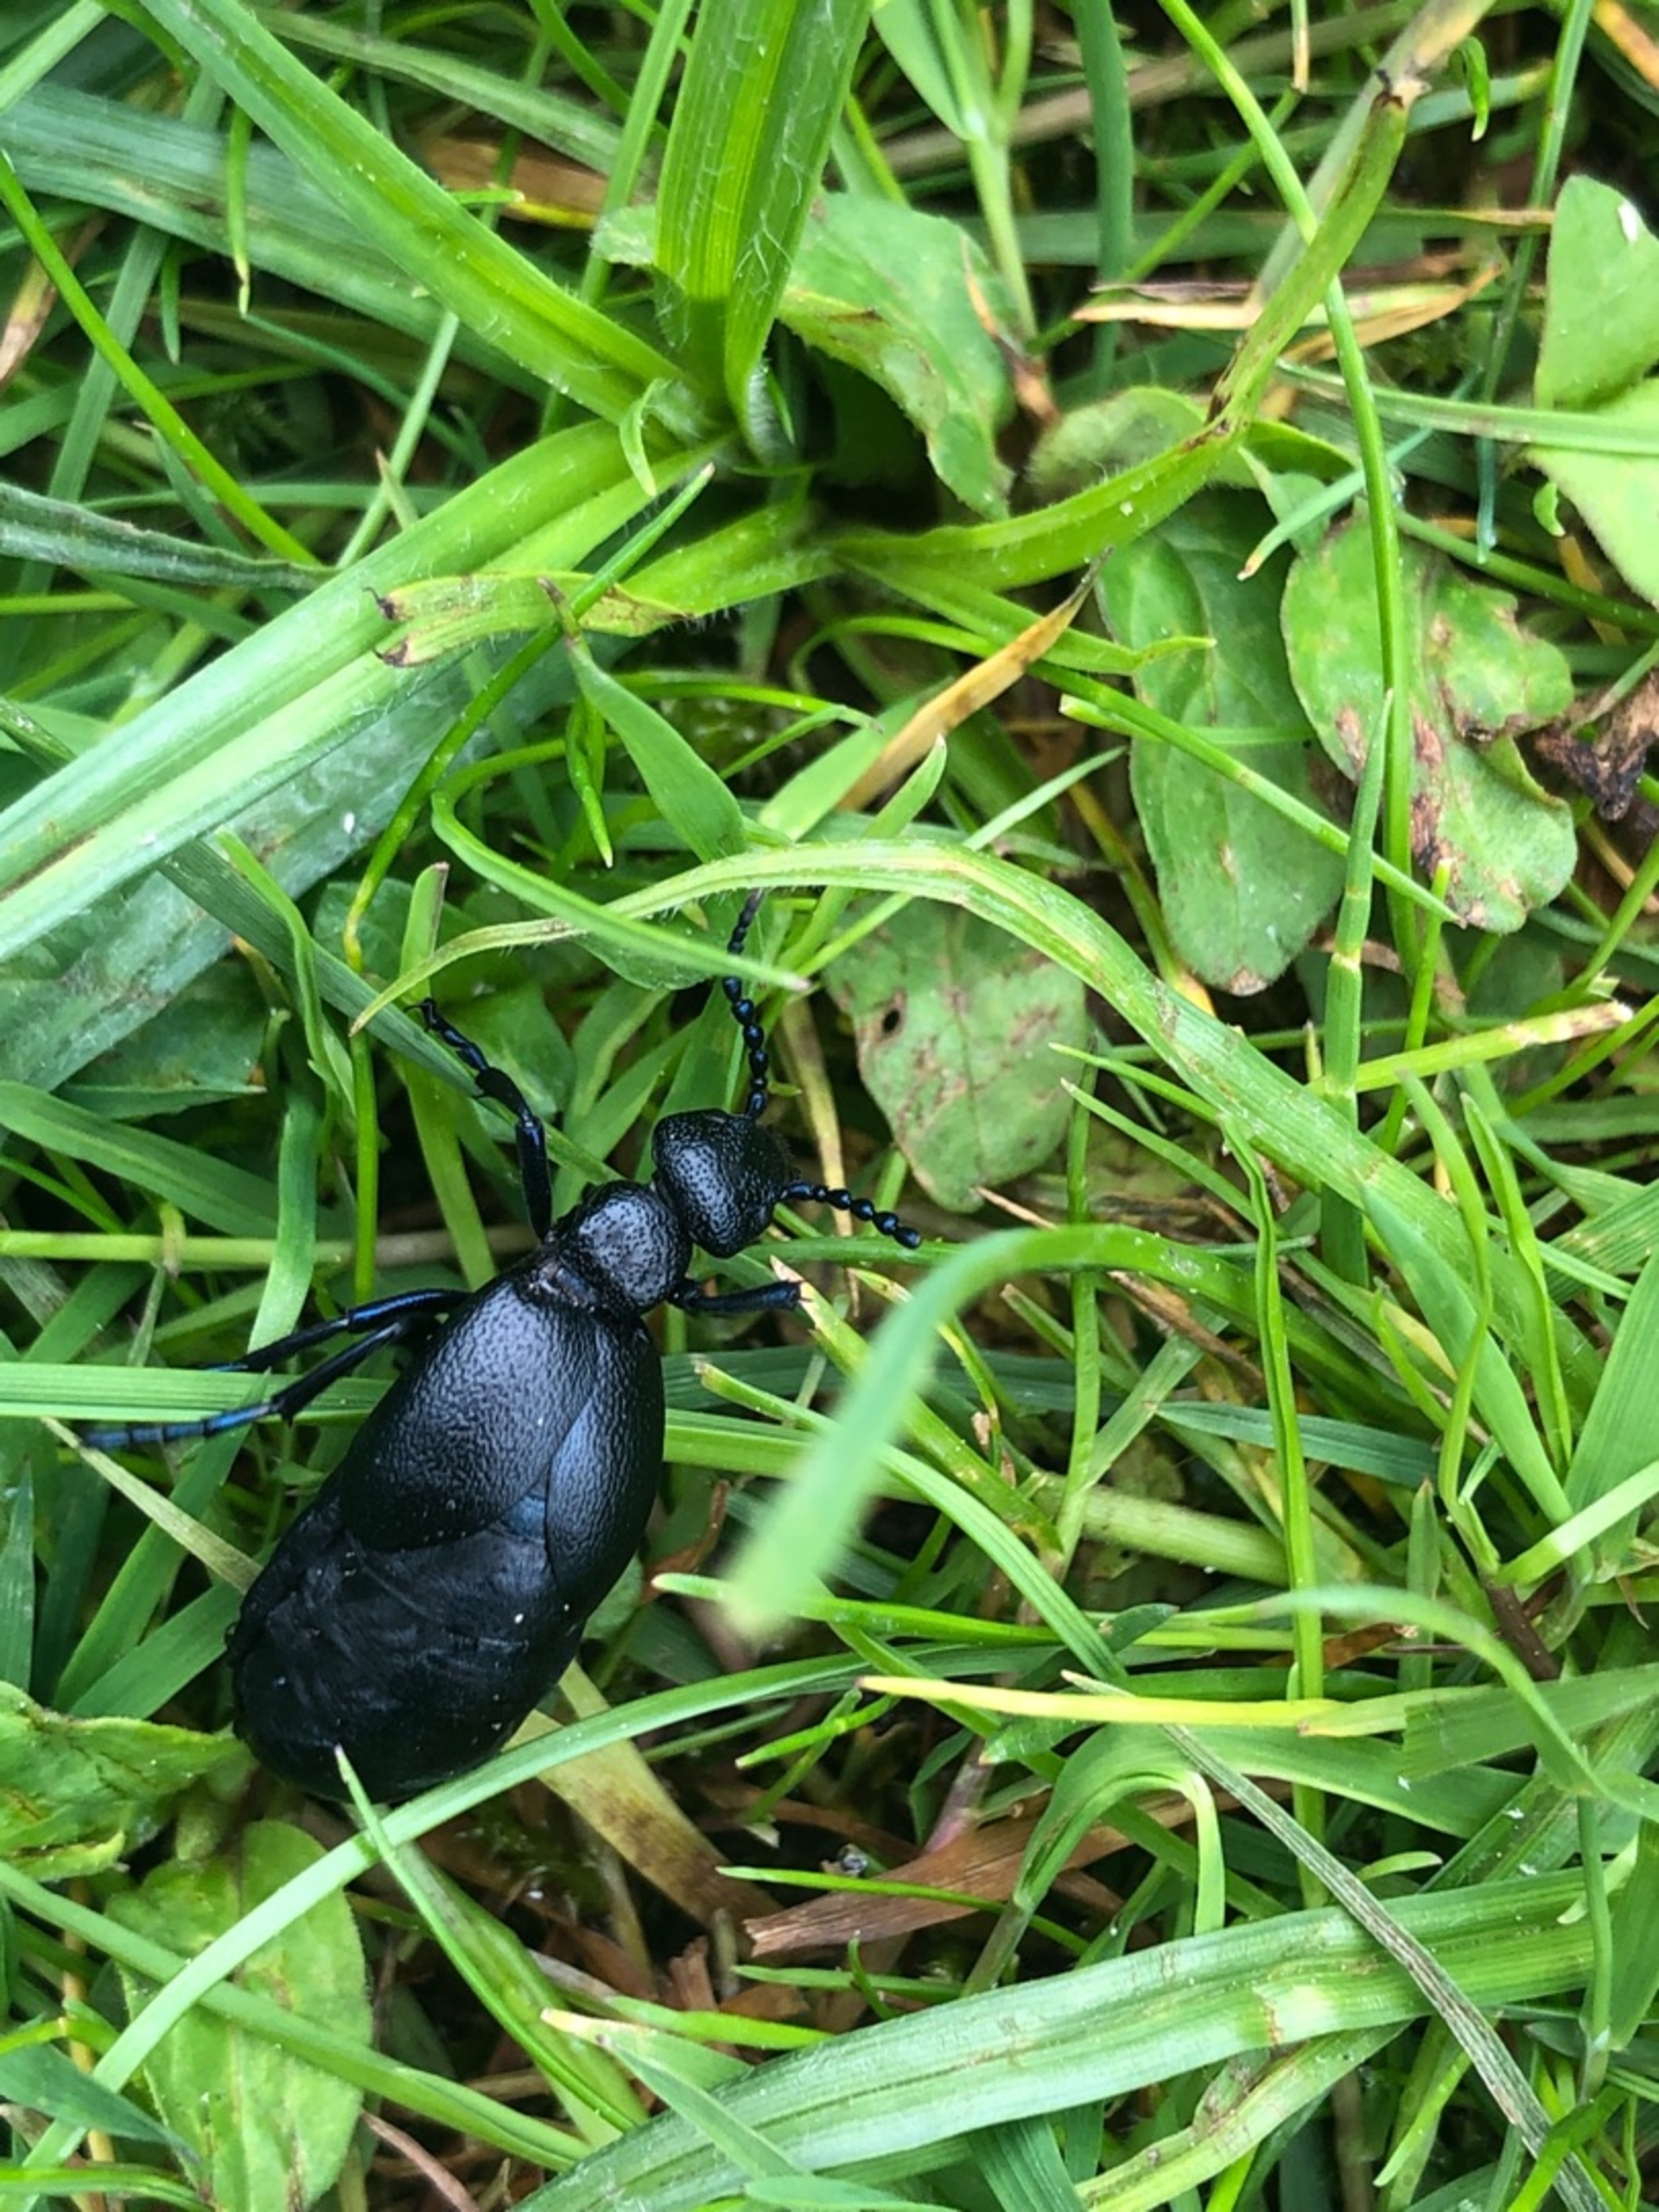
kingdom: Animalia
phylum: Arthropoda
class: Insecta
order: Coleoptera
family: Meloidae
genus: Meloe
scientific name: Meloe proscarabaeus
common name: Sort oliebille
